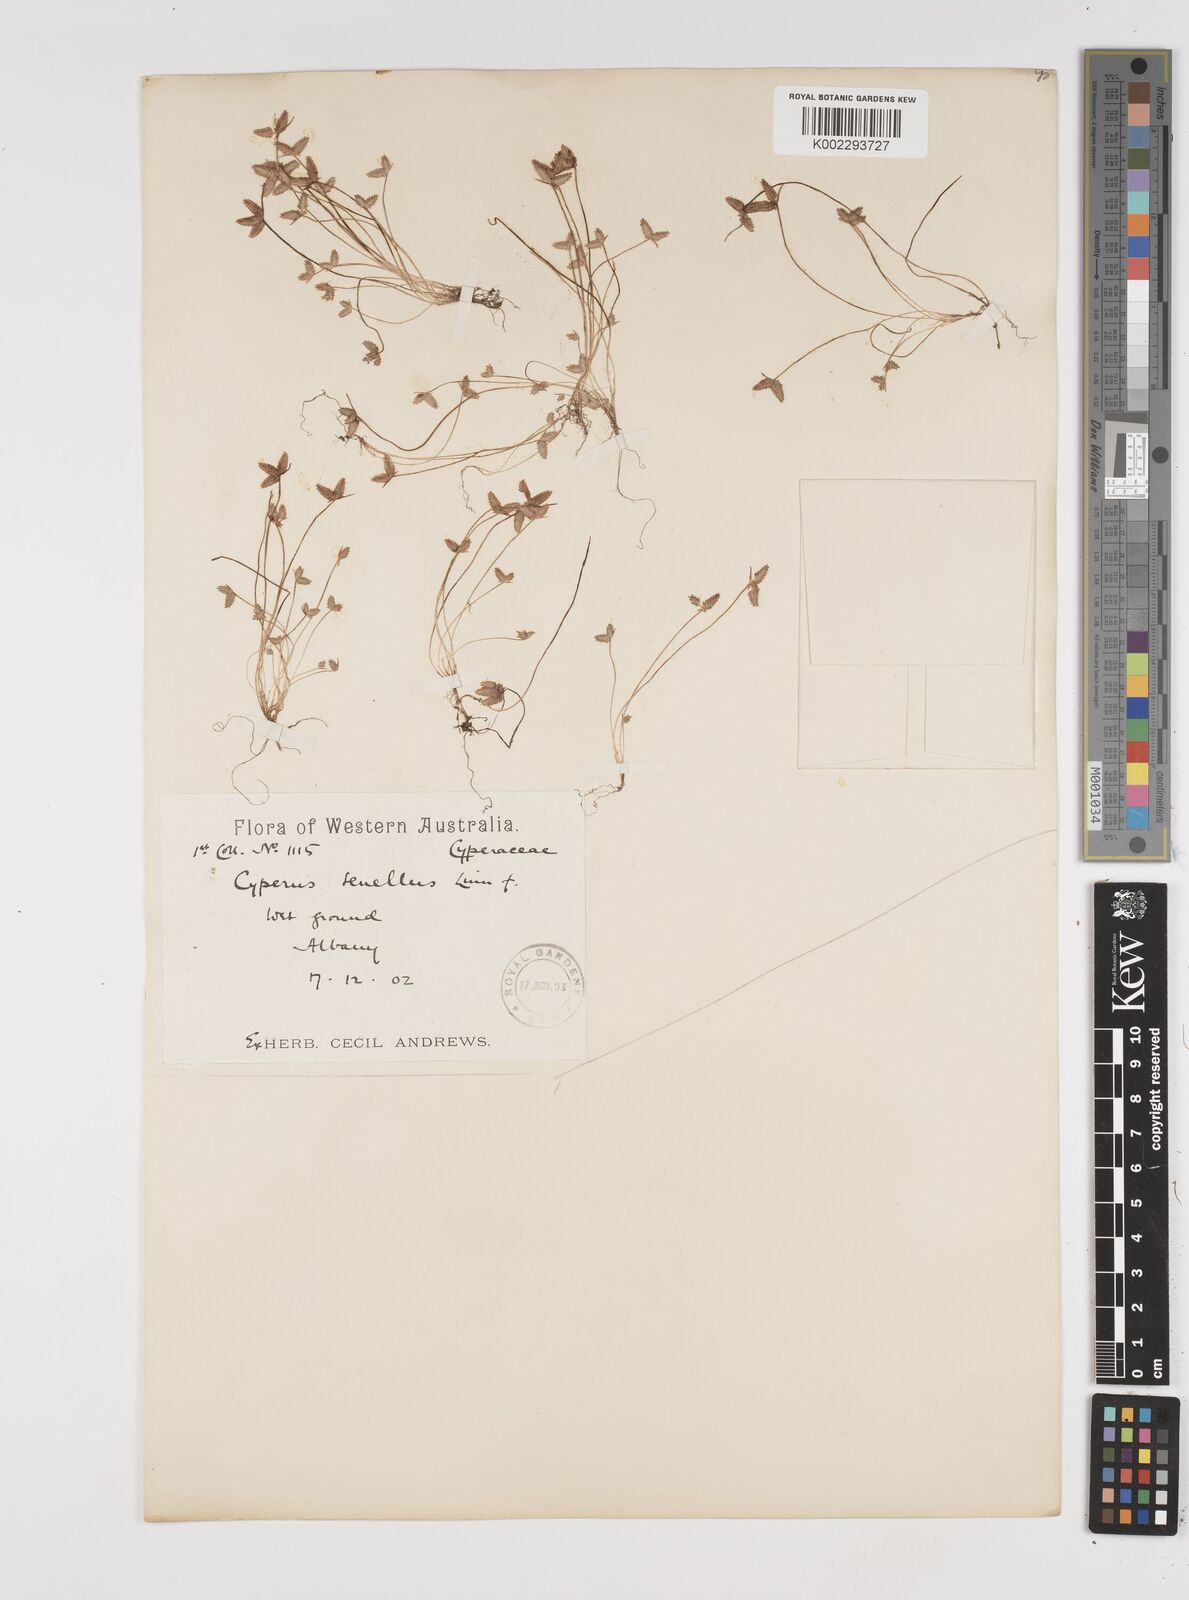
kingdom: Plantae
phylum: Tracheophyta
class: Liliopsida
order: Poales
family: Cyperaceae
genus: Isolepis
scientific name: Isolepis levynsiana
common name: Sedge
